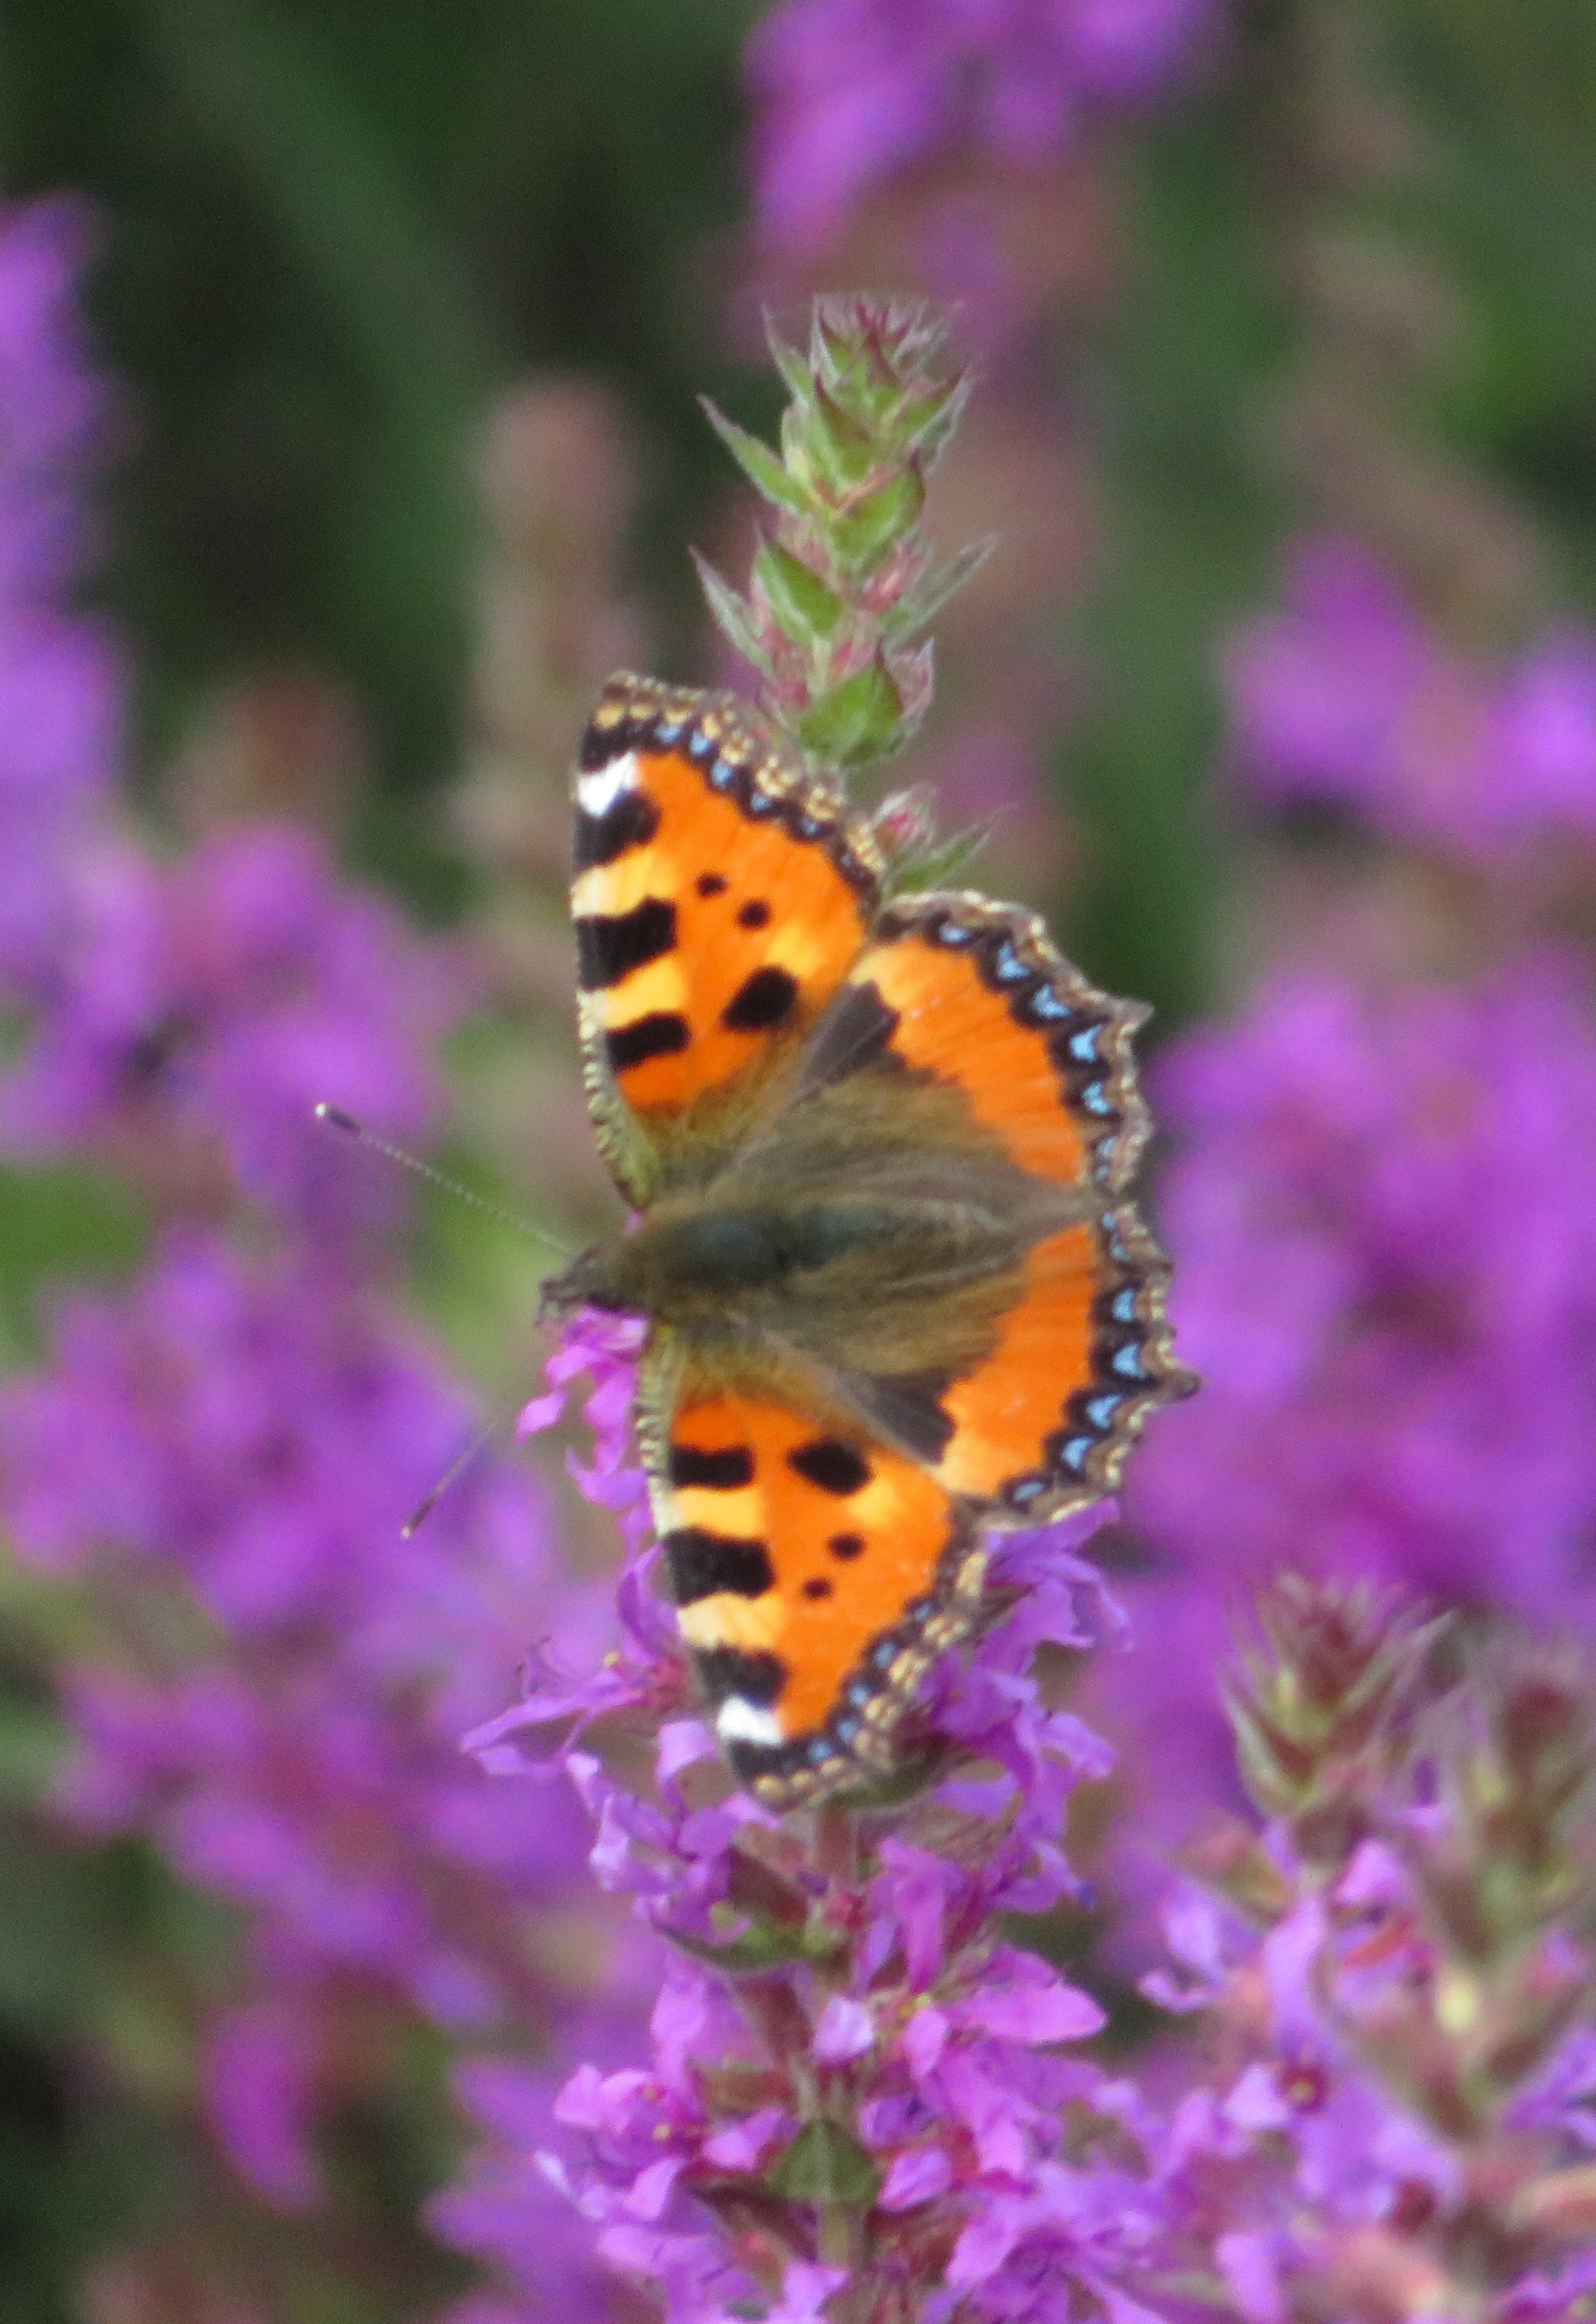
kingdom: Animalia
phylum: Arthropoda
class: Insecta
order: Lepidoptera
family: Nymphalidae
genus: Aglais
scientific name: Aglais urticae
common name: Nældens takvinge
